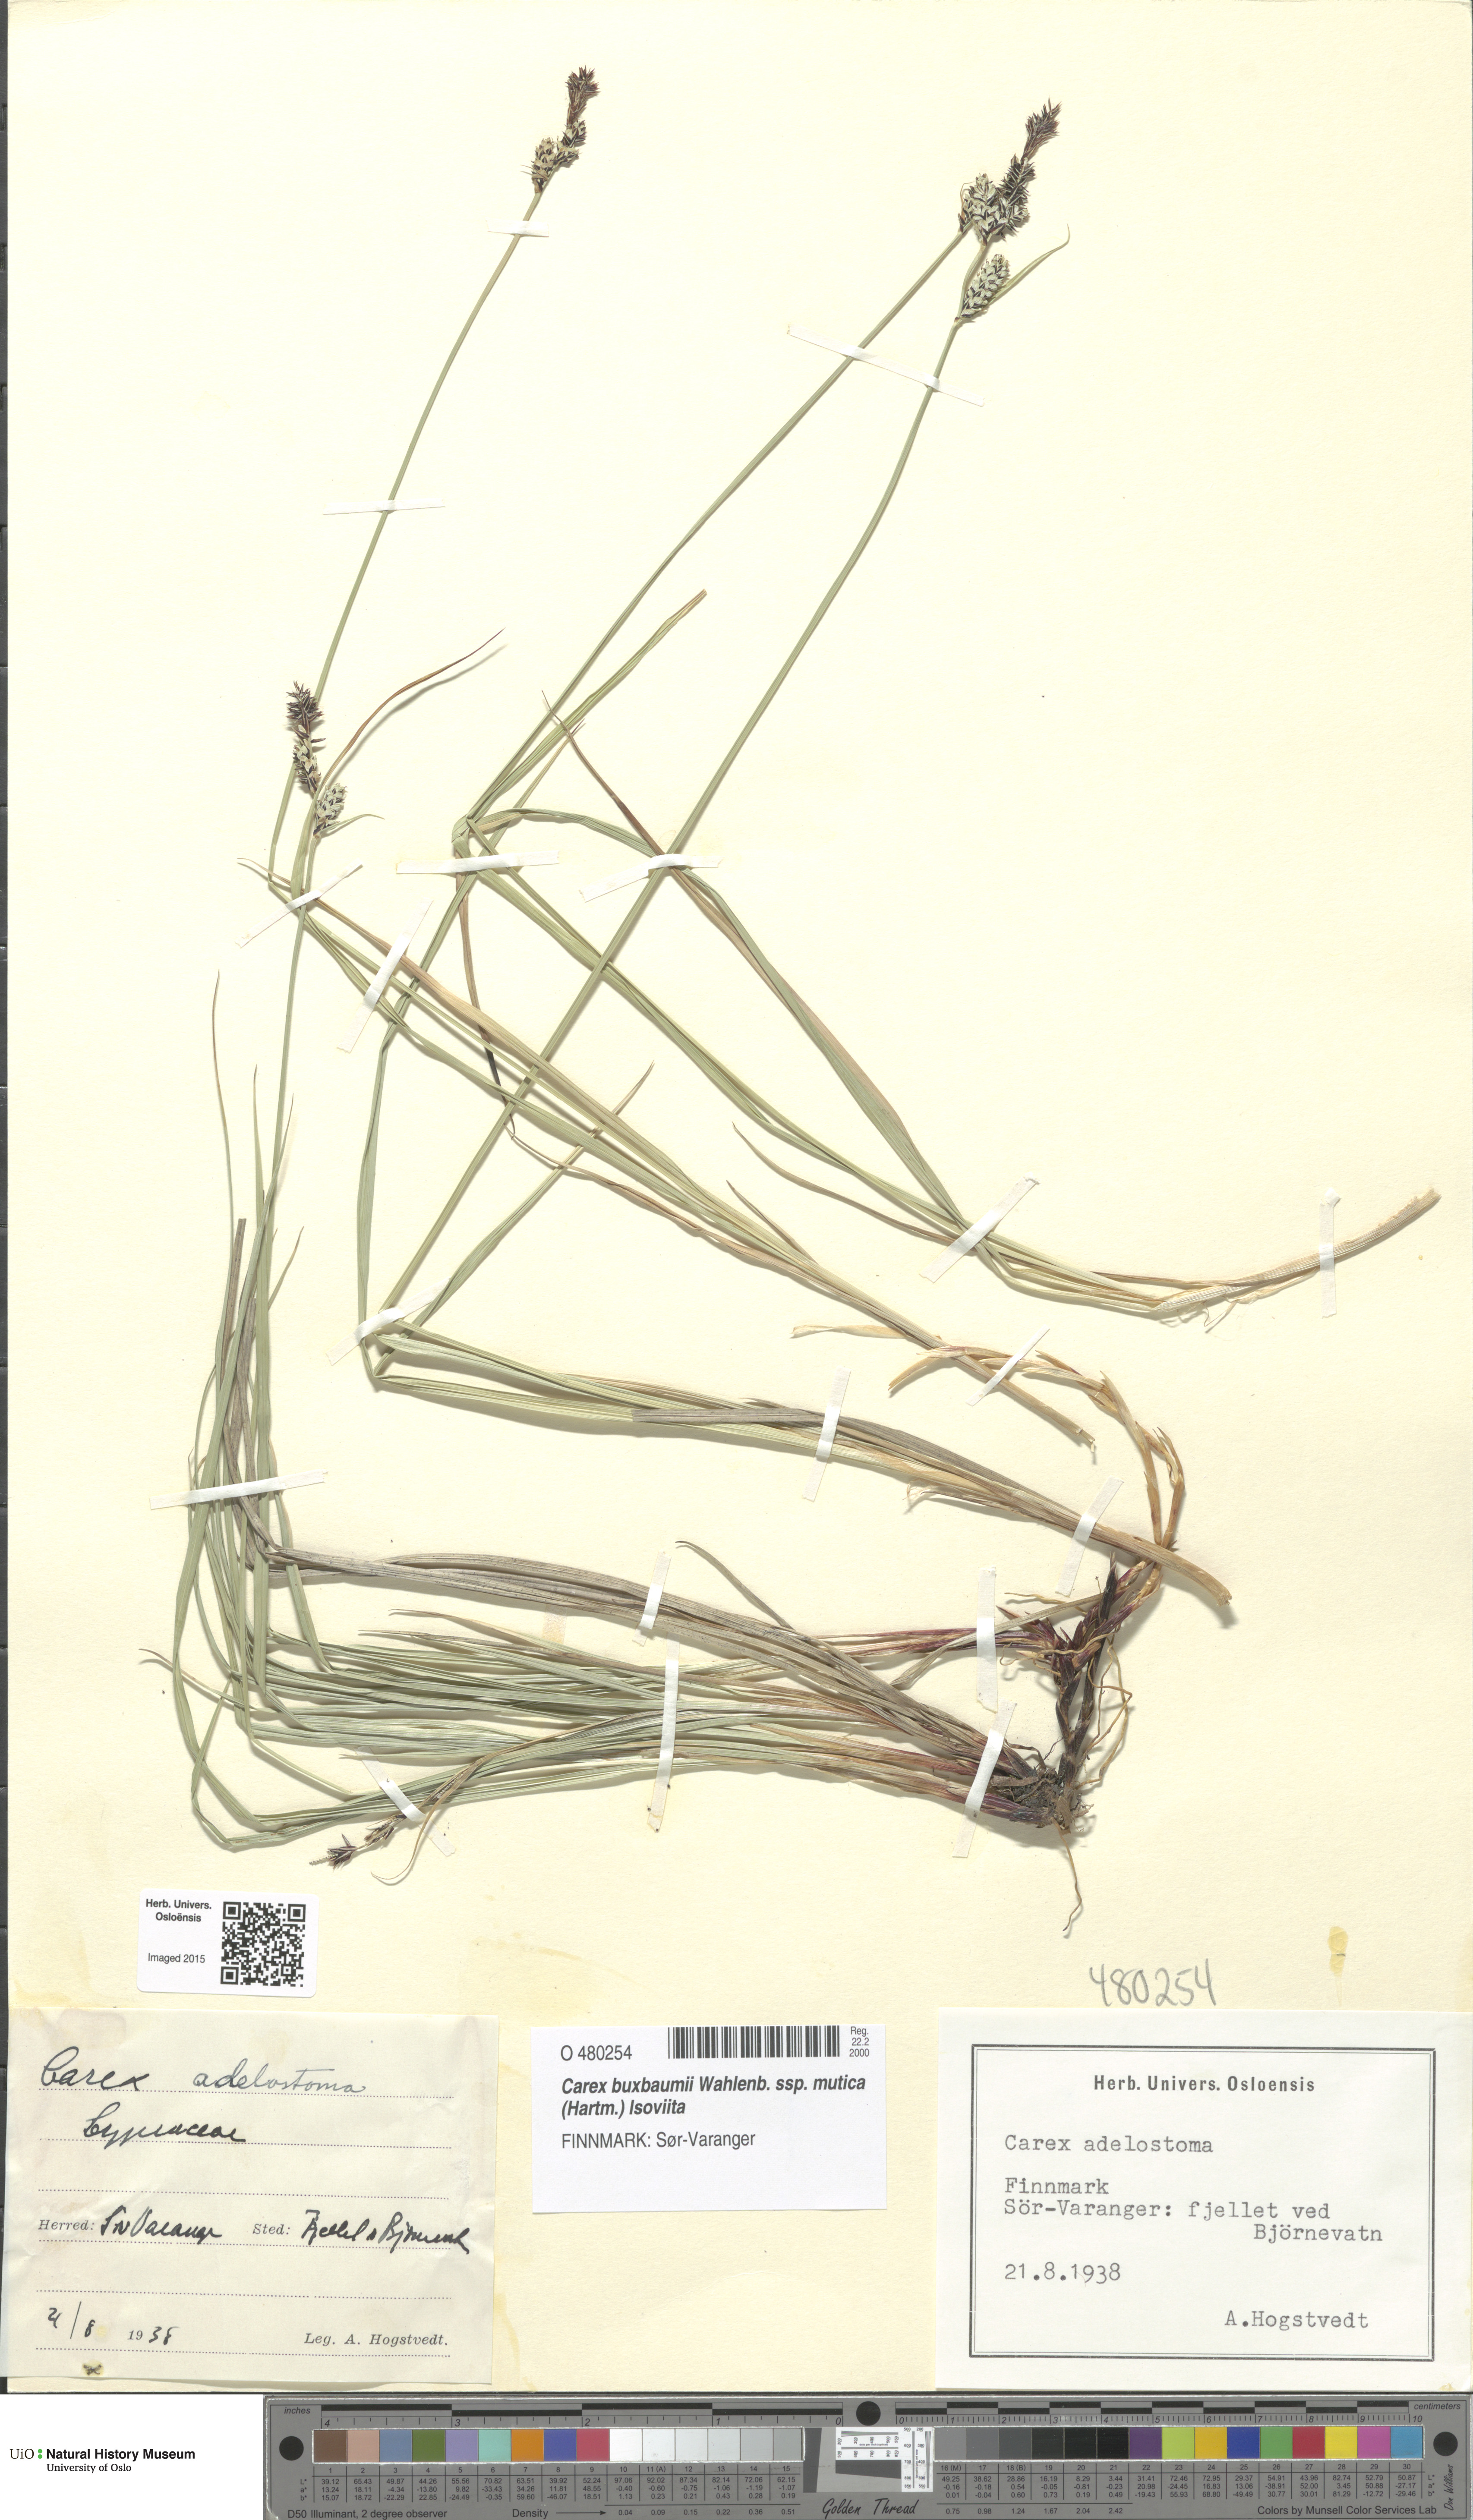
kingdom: Plantae
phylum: Tracheophyta
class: Liliopsida
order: Poales
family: Cyperaceae
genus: Carex
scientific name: Carex adelostoma
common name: Circumpolar sedge
